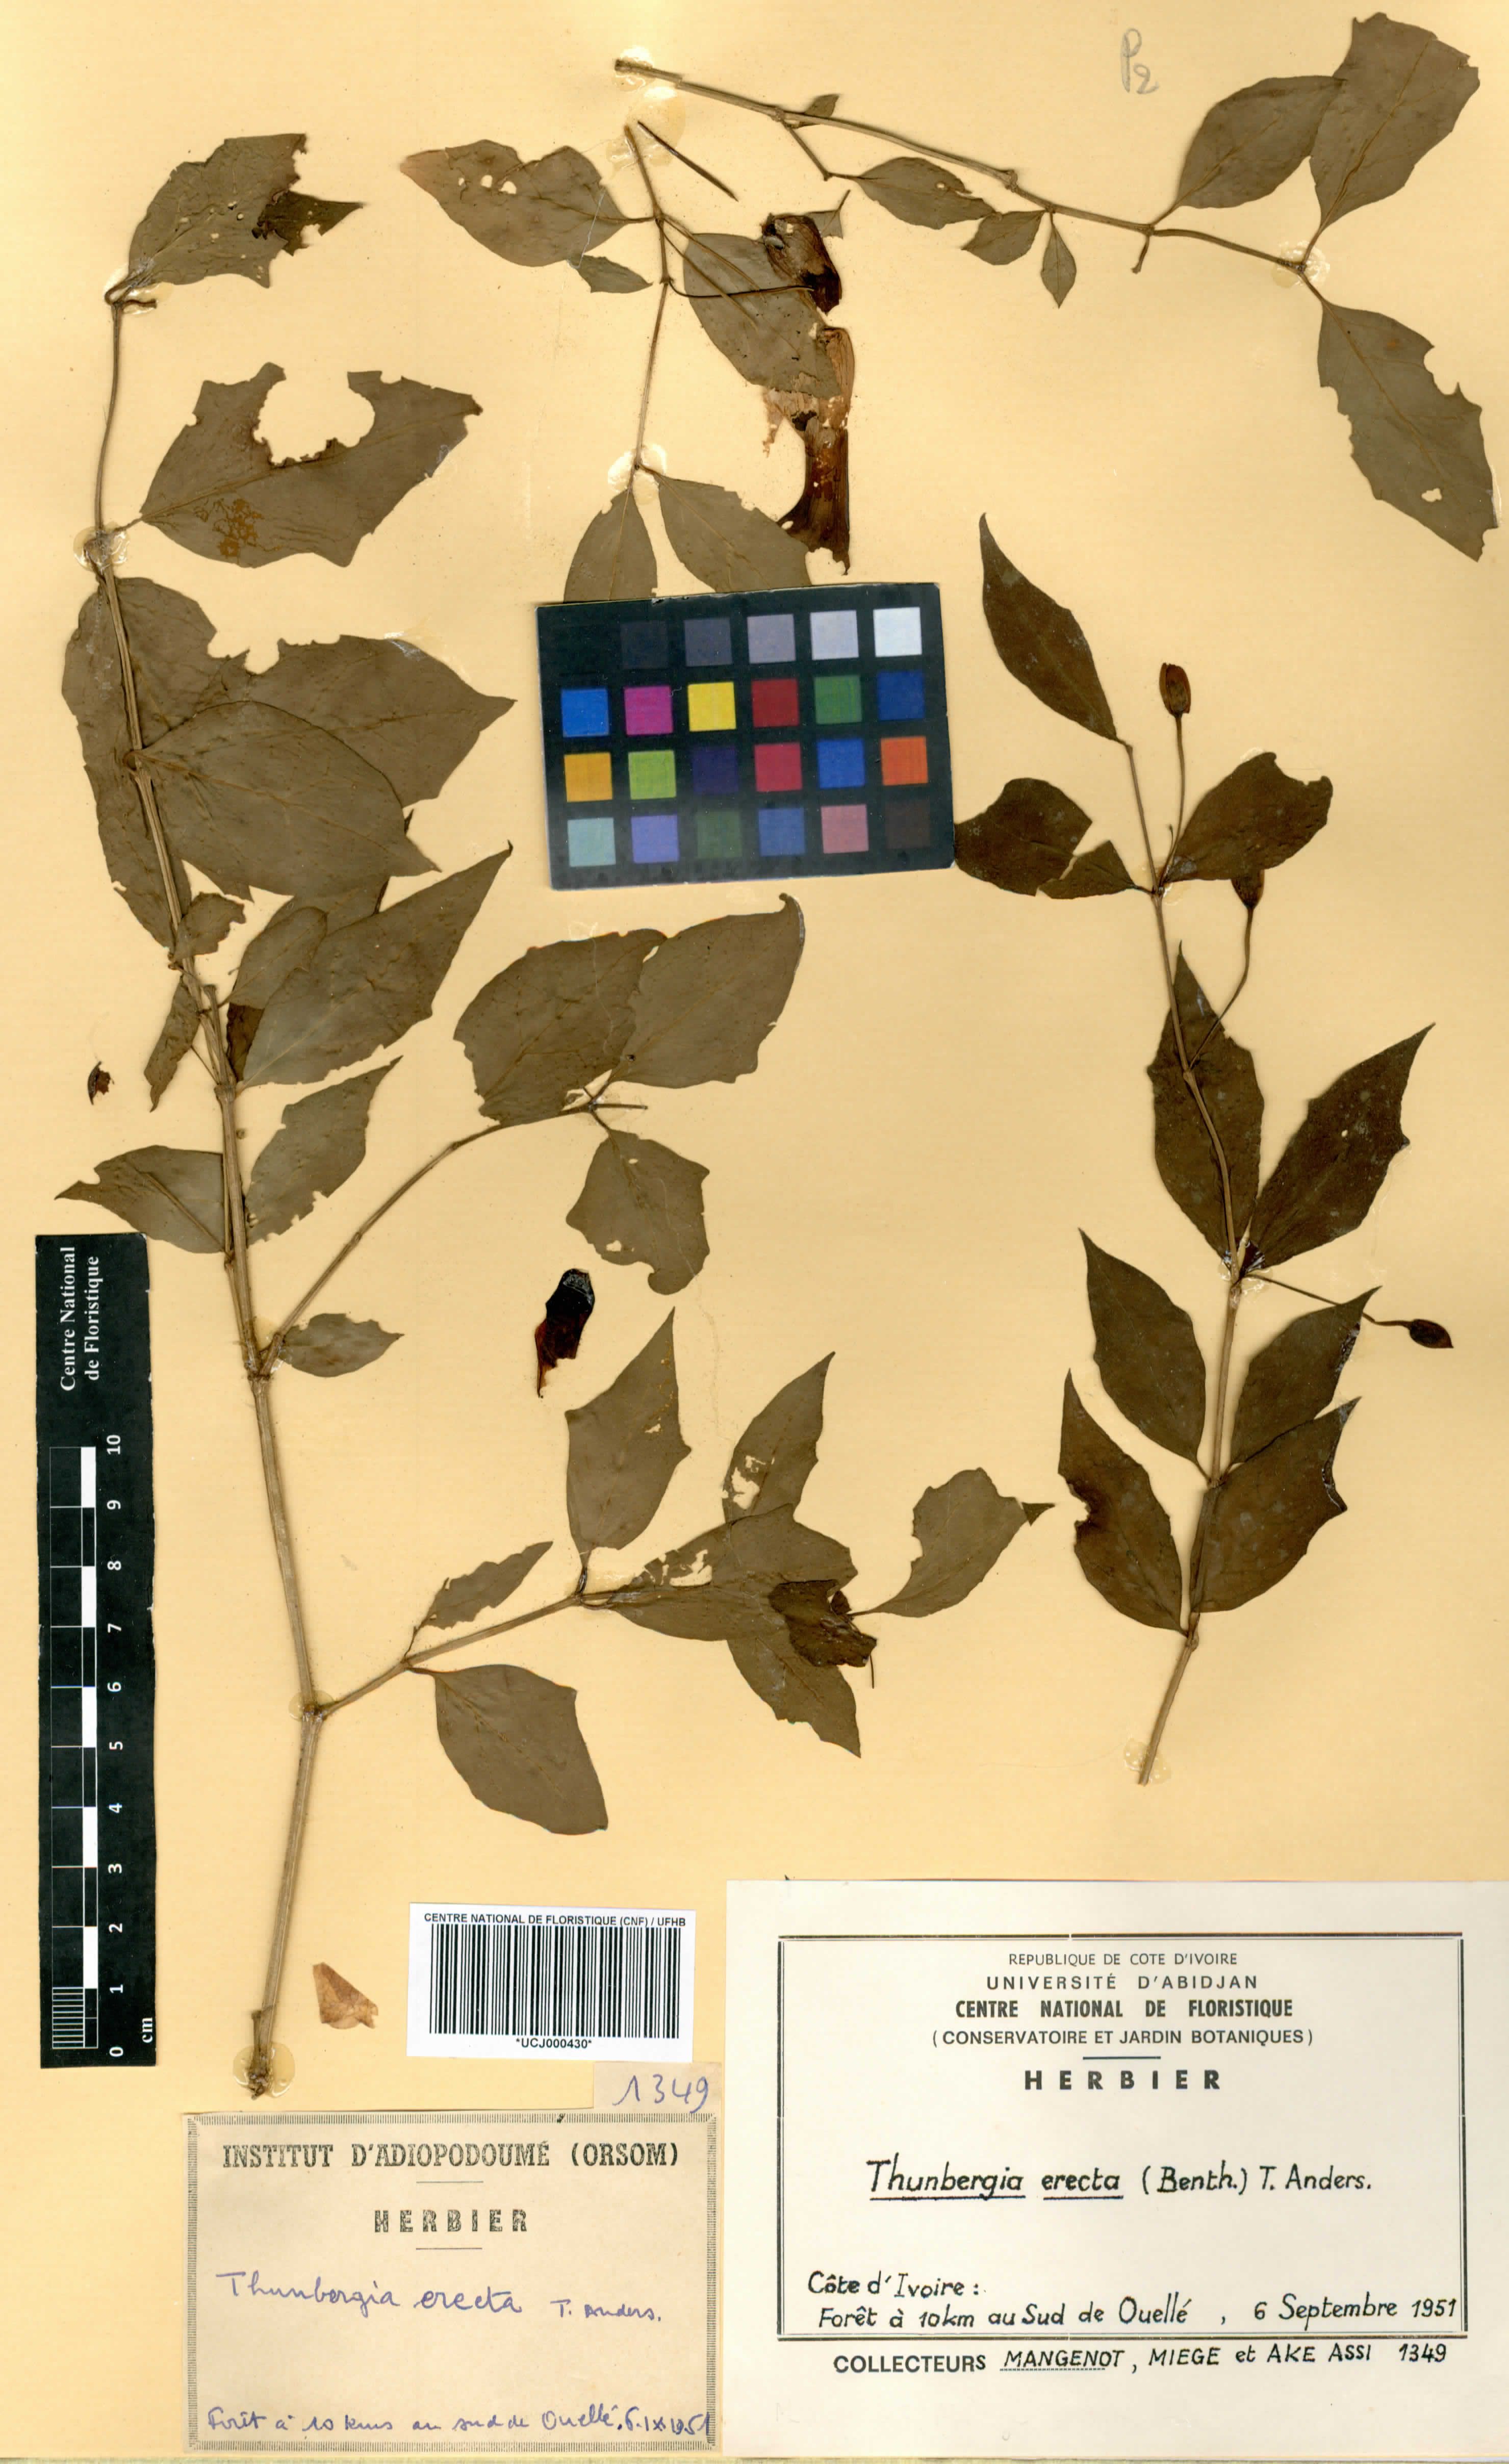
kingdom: Plantae
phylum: Tracheophyta
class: Magnoliopsida
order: Lamiales
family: Acanthaceae
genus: Thunbergia
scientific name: Thunbergia erecta
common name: Bush clockvine
